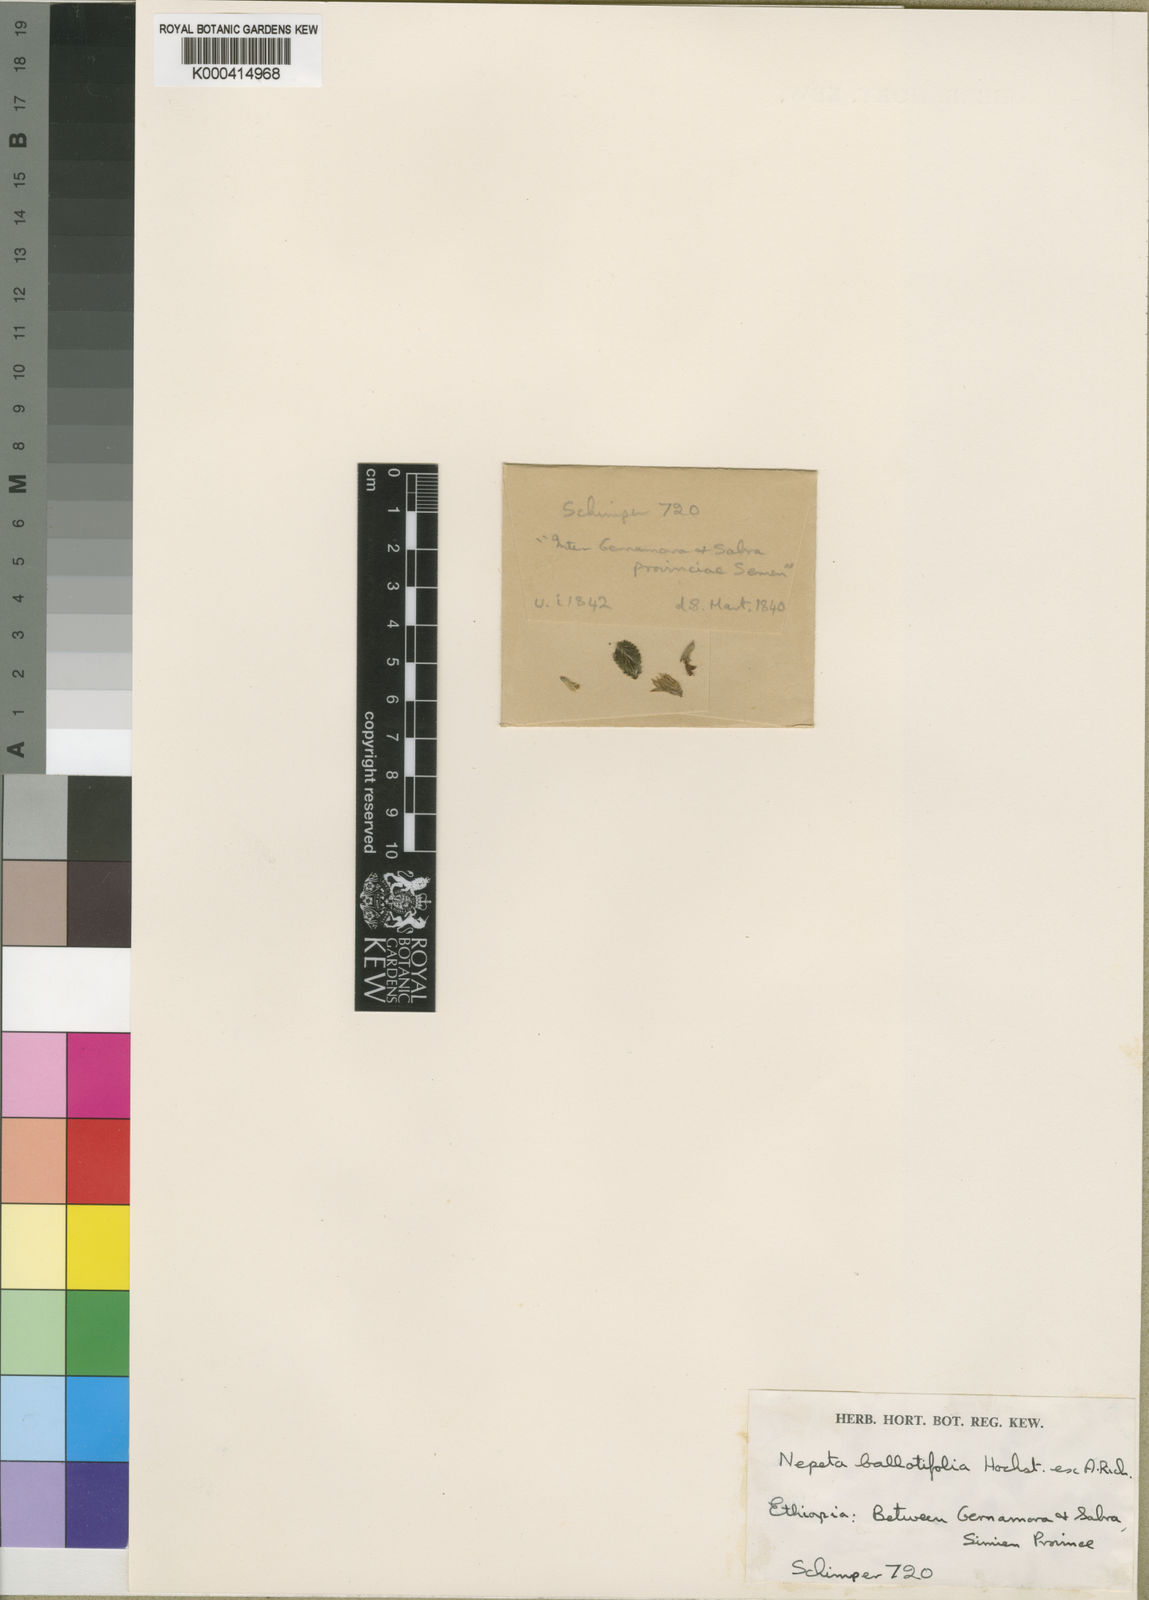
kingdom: Plantae
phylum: Tracheophyta
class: Magnoliopsida
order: Lamiales
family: Lamiaceae
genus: Nepeta
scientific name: Nepeta azurea
